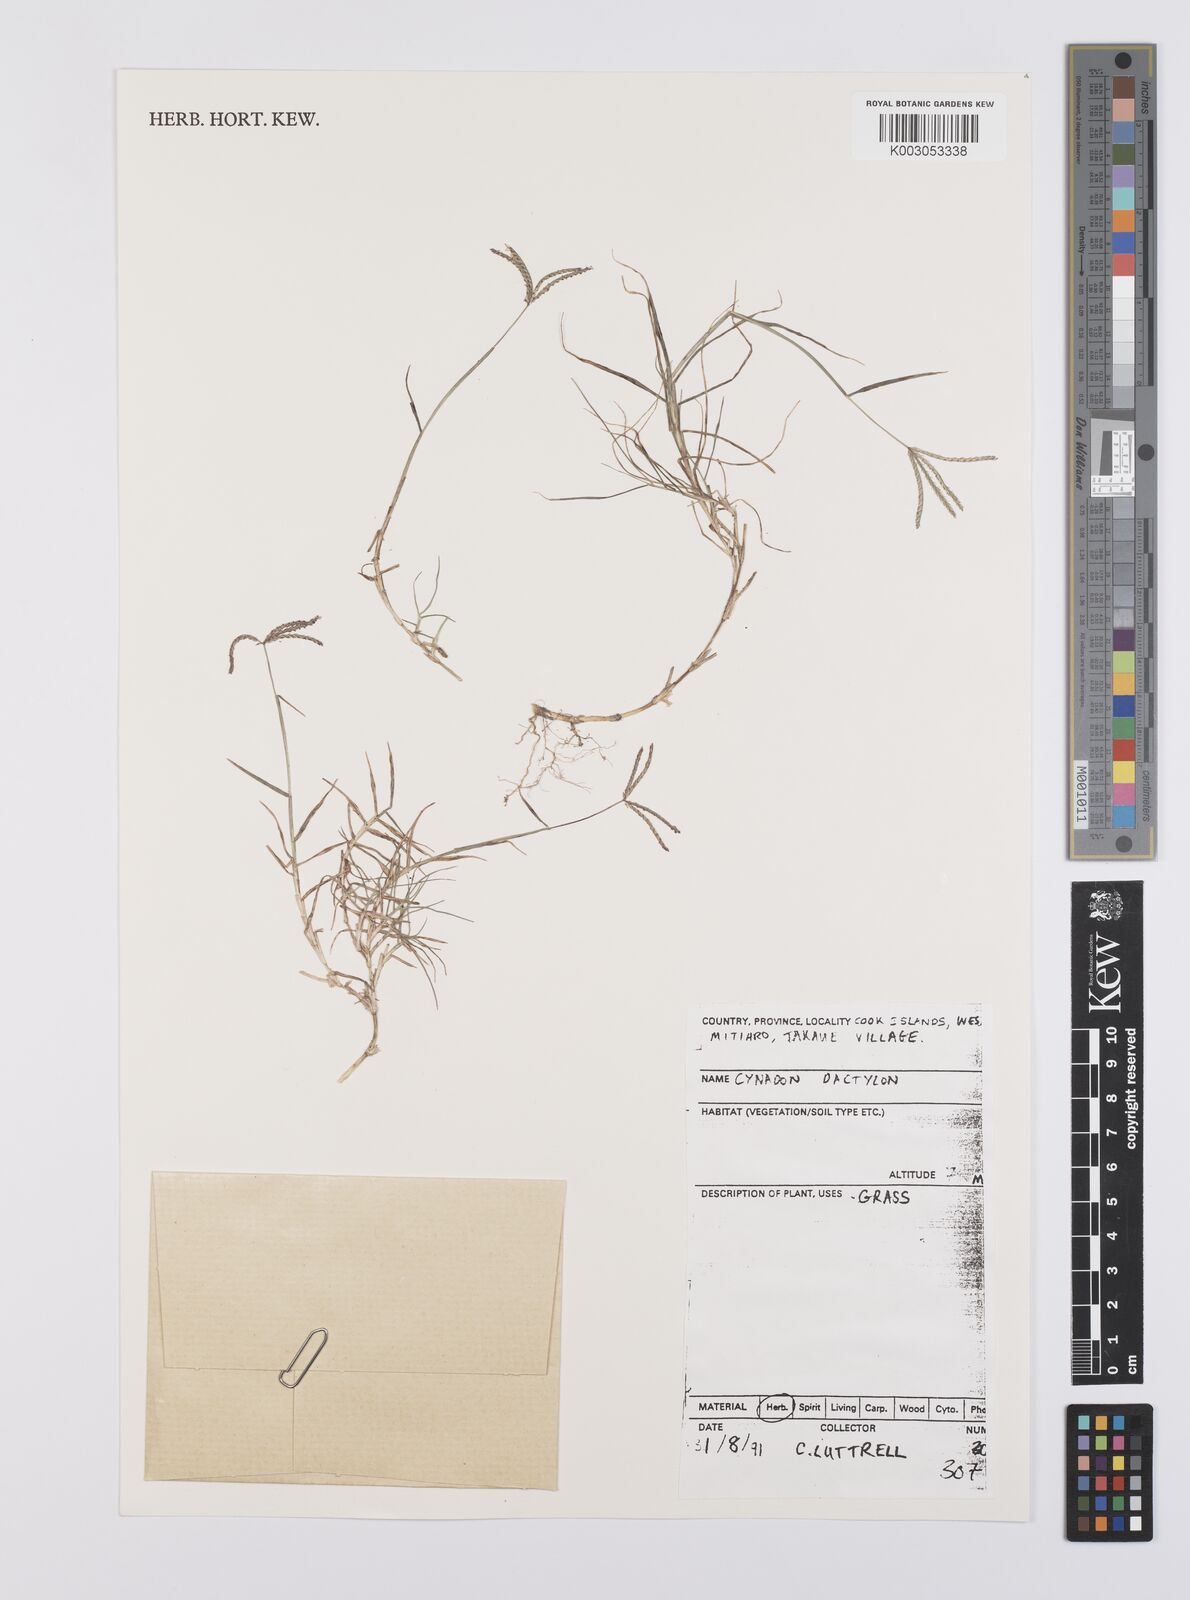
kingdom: Plantae
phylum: Tracheophyta
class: Liliopsida
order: Poales
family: Poaceae
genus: Cynodon
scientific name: Cynodon dactylon
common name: Bermuda grass
